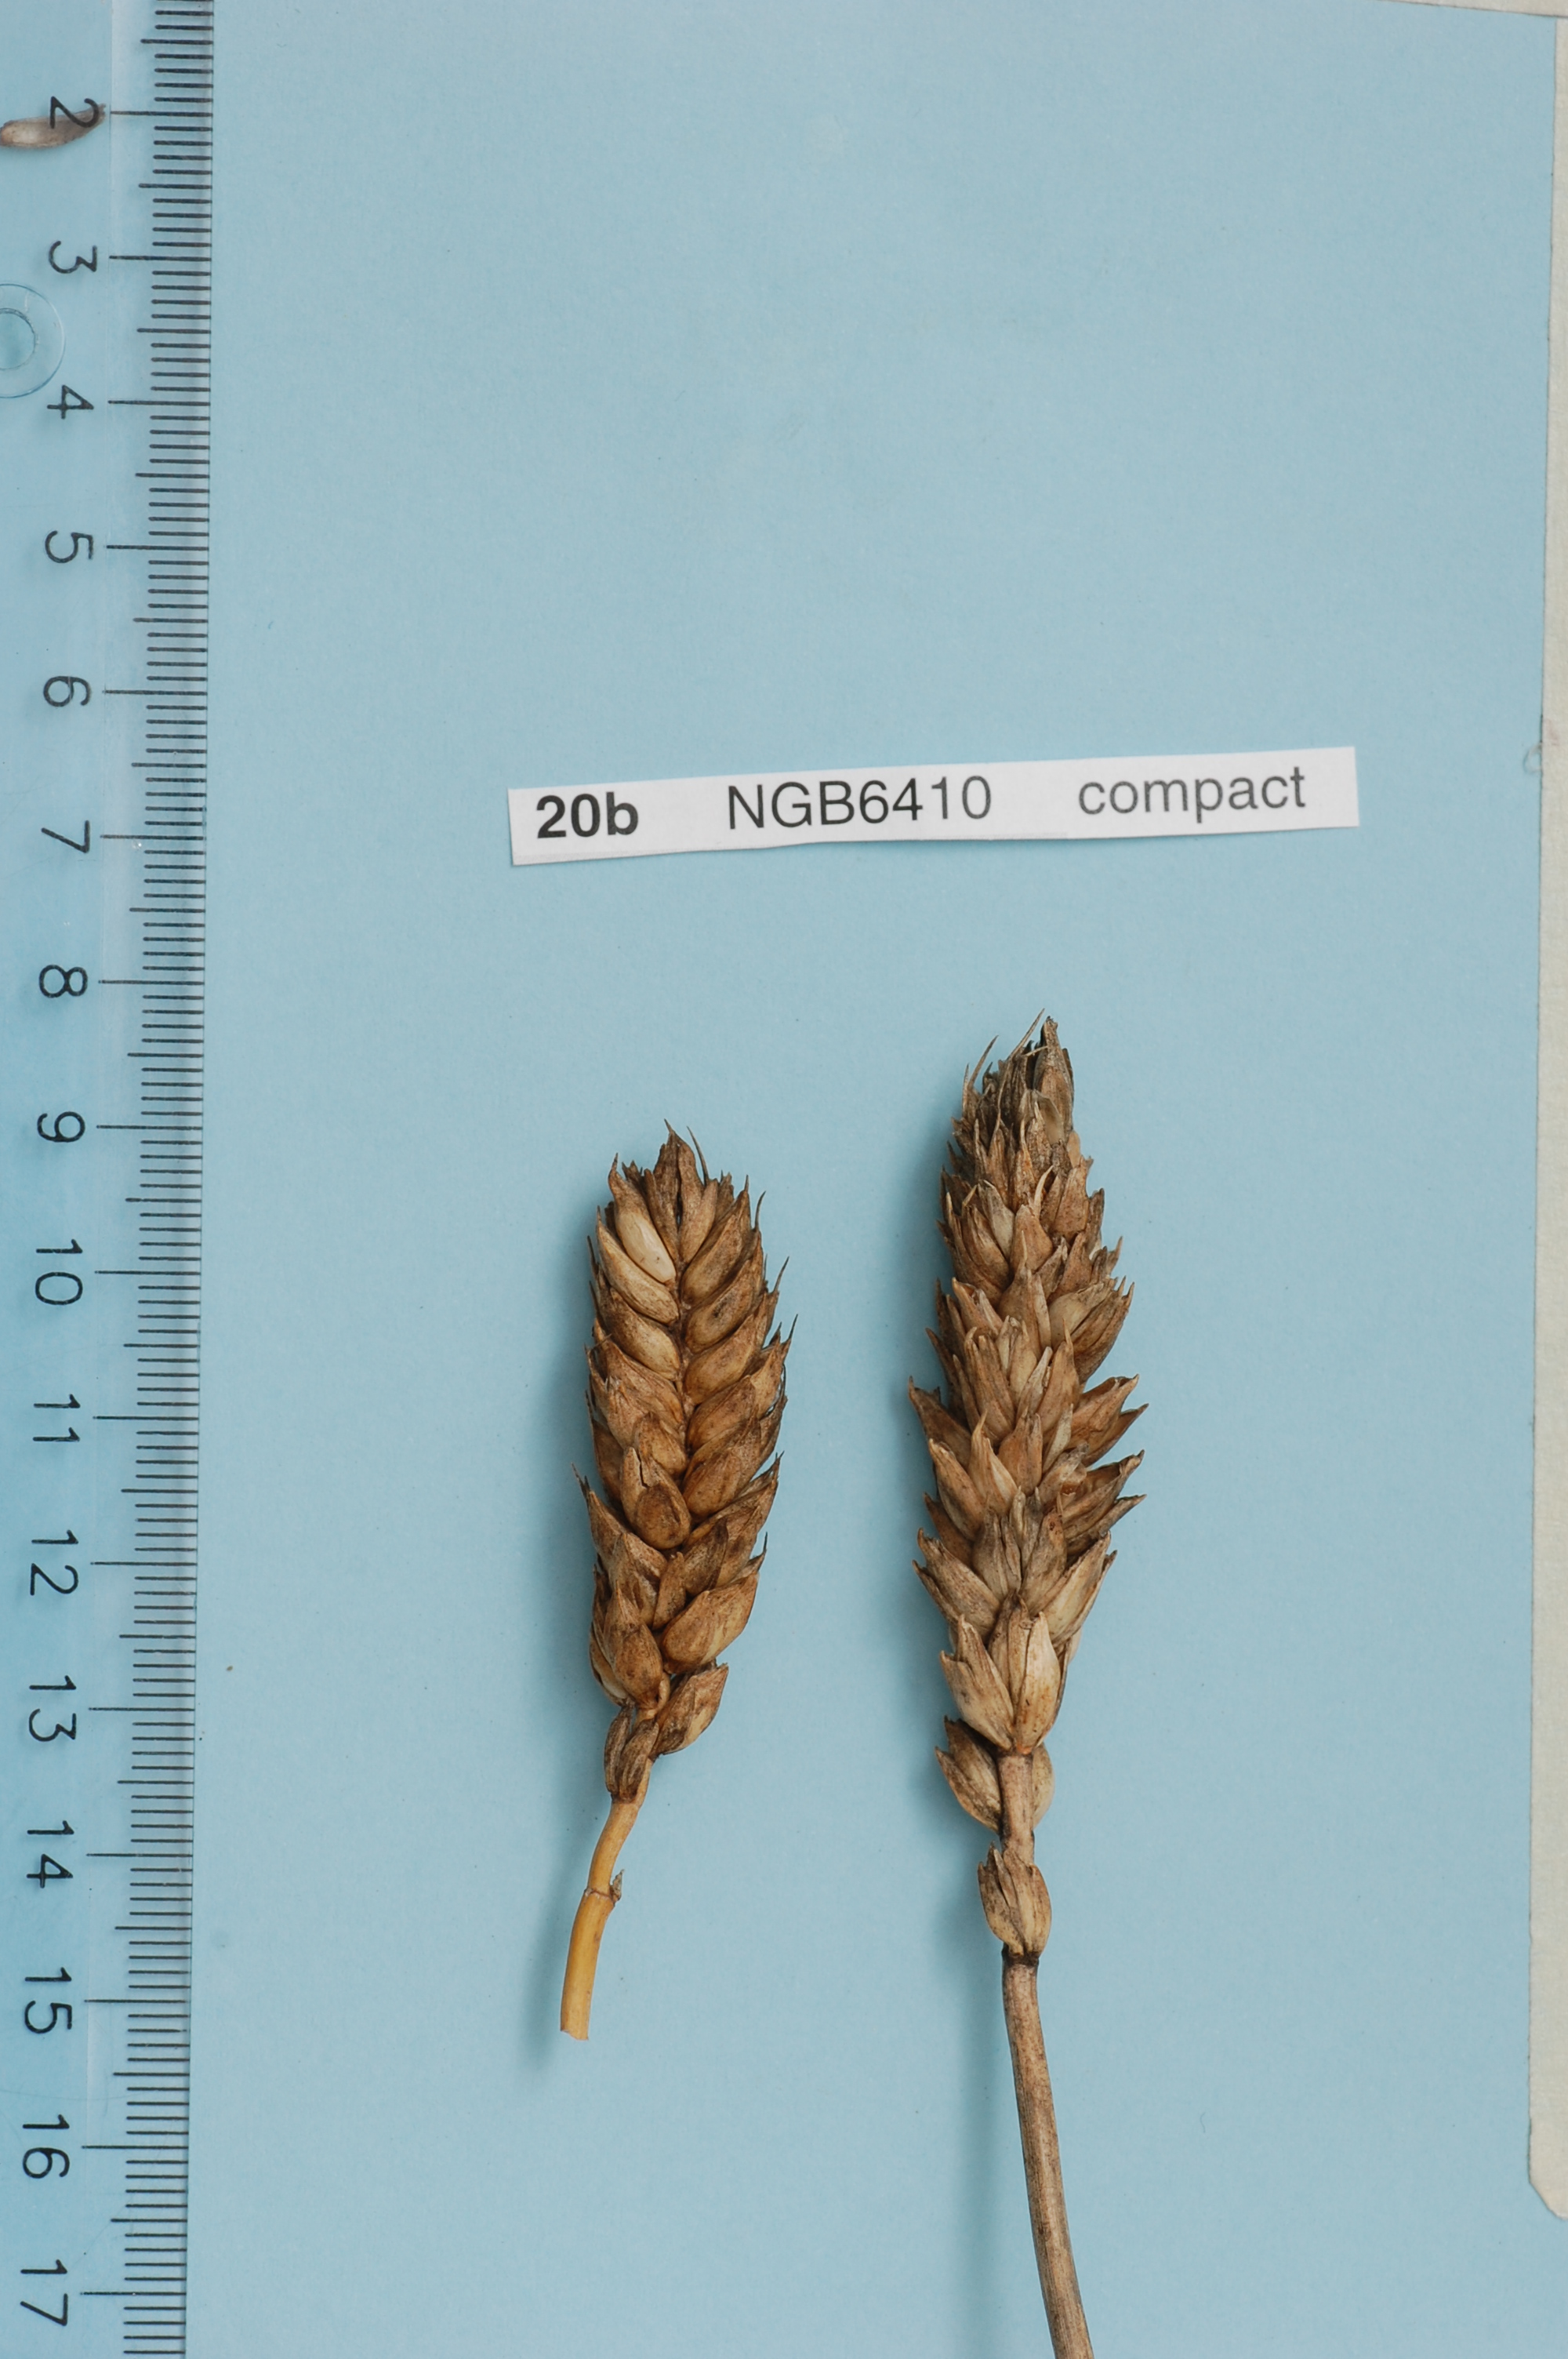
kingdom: Plantae
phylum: Tracheophyta
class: Liliopsida
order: Poales
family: Poaceae
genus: Triticum
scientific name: Triticum aestivum
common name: Common wheat
